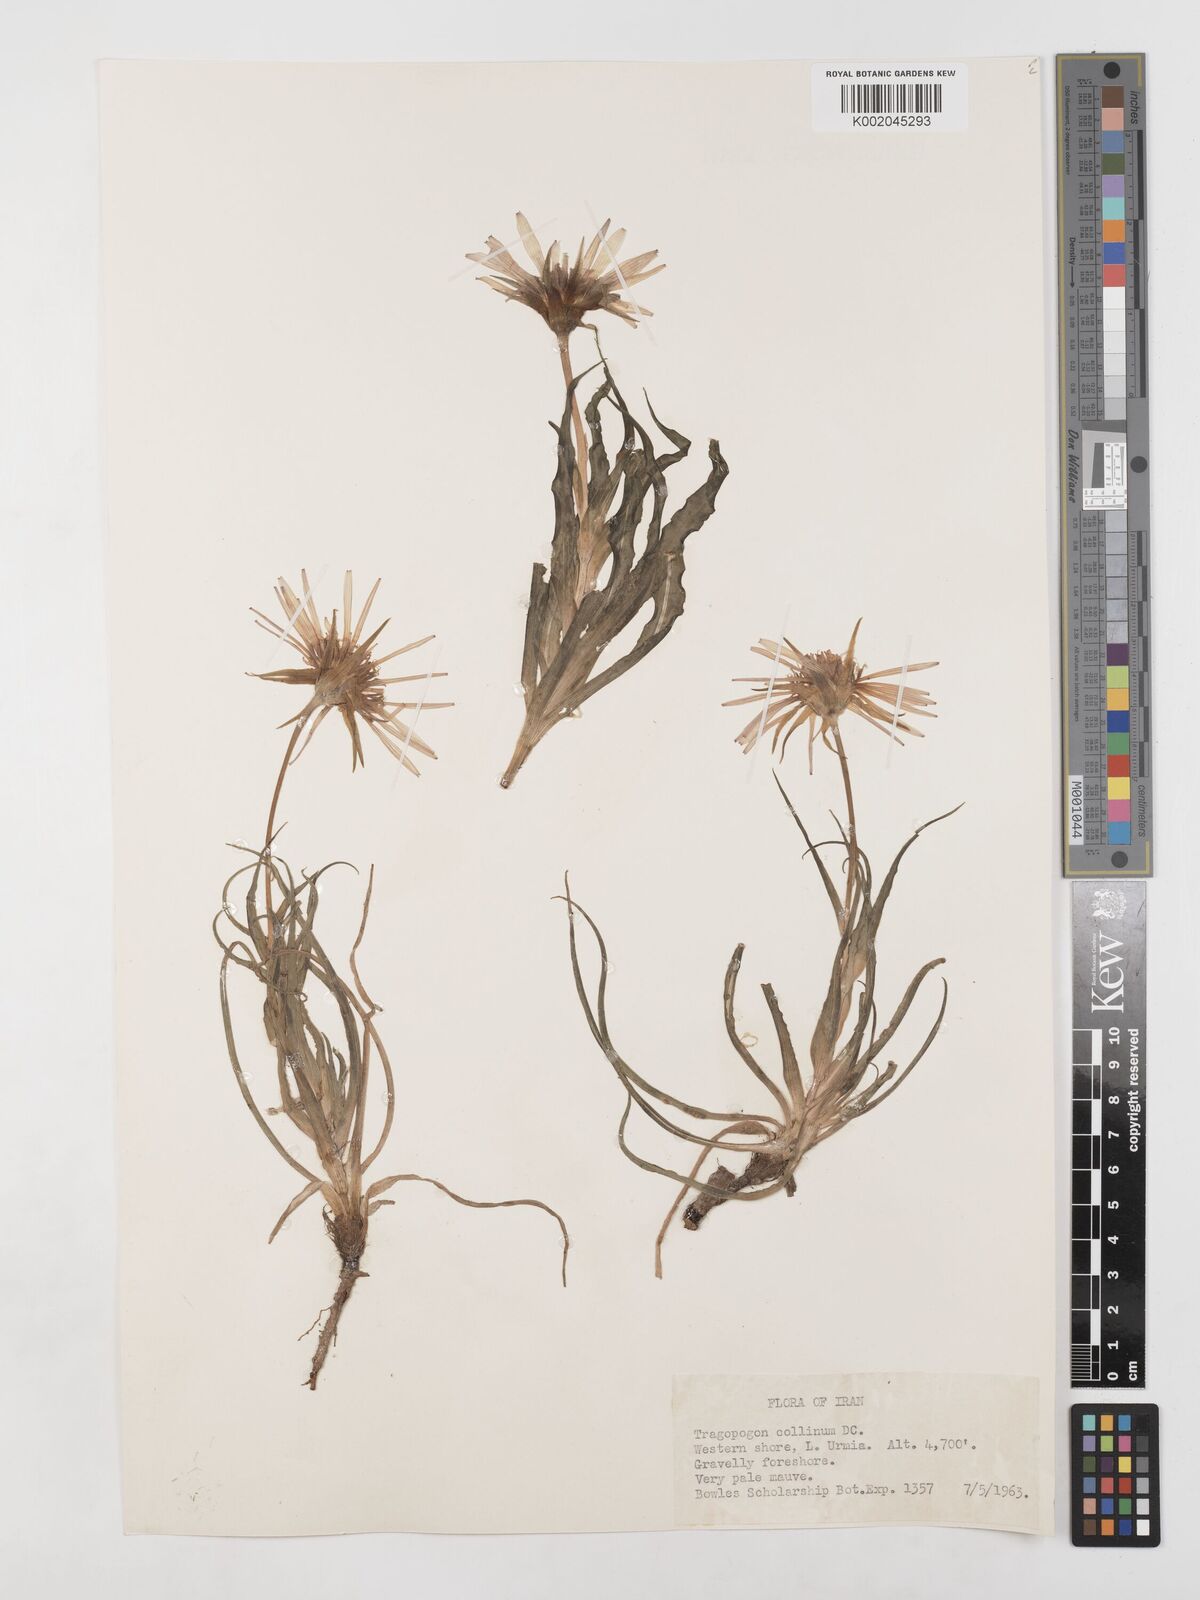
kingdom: Plantae
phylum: Tracheophyta
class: Magnoliopsida
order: Asterales
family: Asteraceae
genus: Tragopogon
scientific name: Tragopogon collinus
